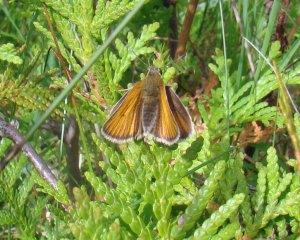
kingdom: Animalia
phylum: Arthropoda
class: Insecta
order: Lepidoptera
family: Hesperiidae
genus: Thymelicus
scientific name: Thymelicus lineola
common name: European Skipper
